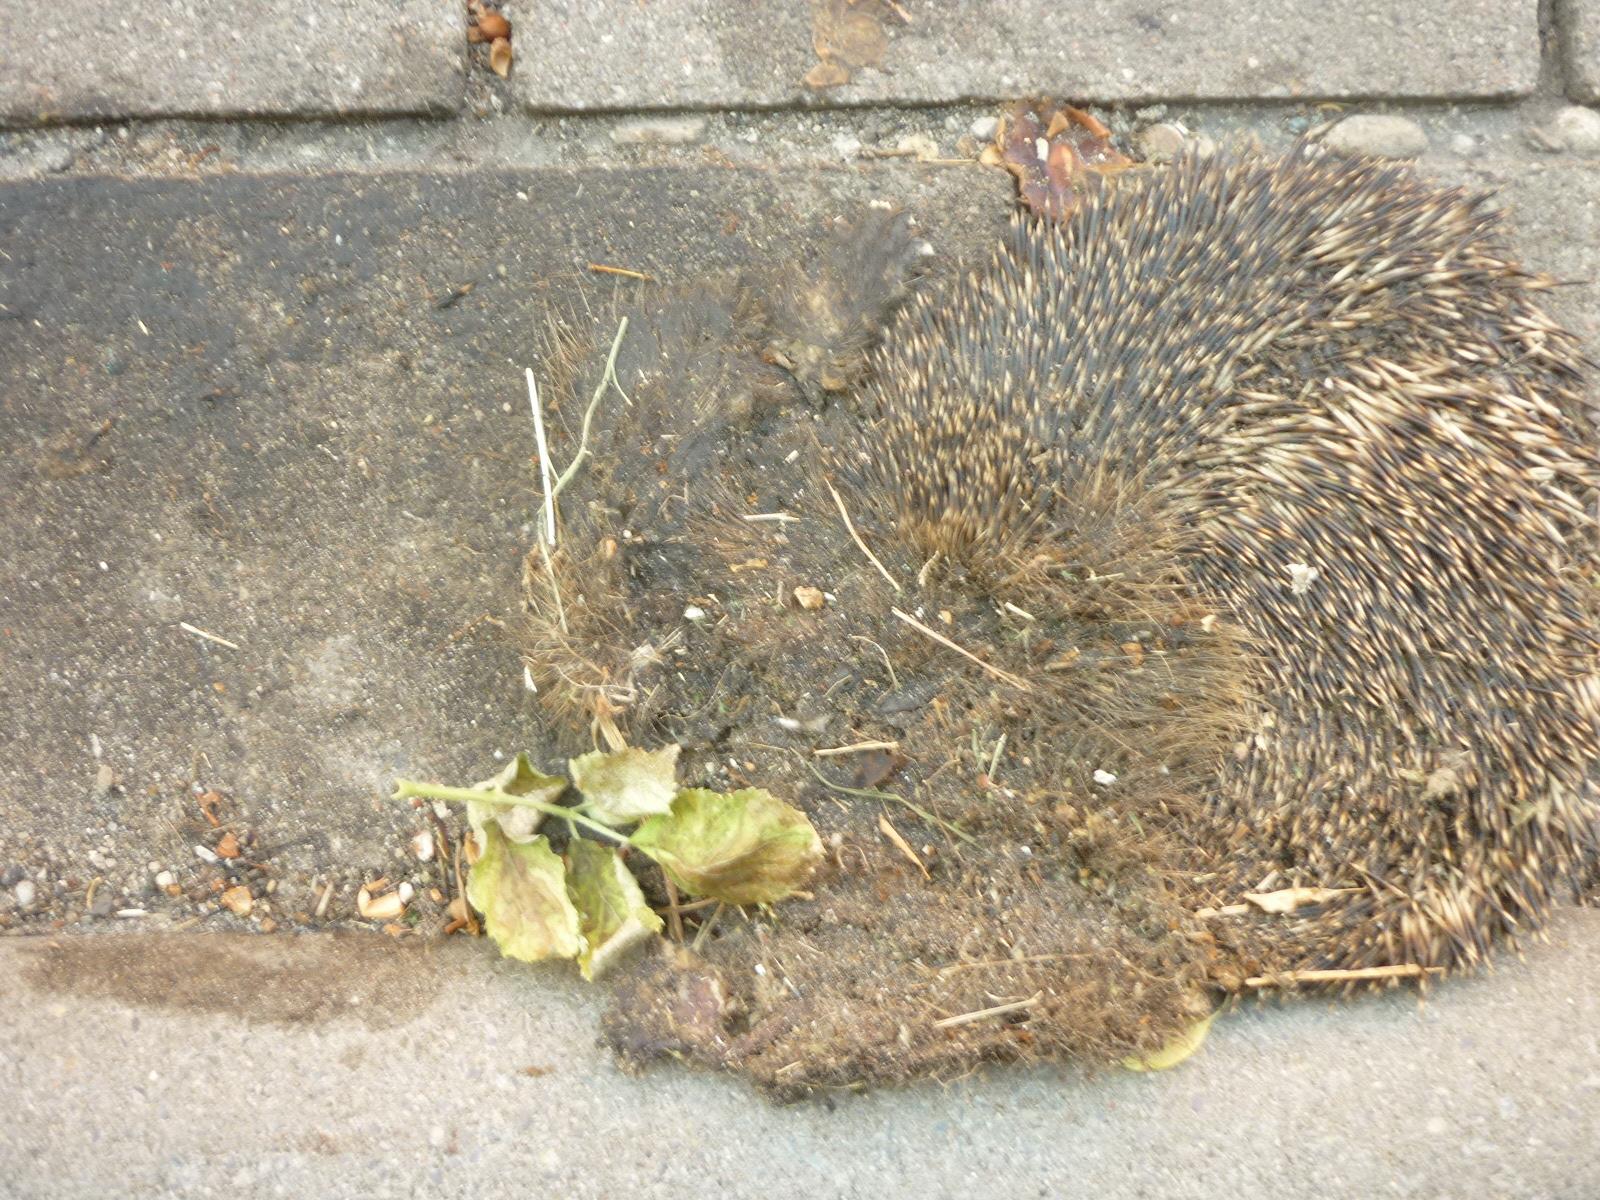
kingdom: Animalia
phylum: Chordata
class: Mammalia
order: Erinaceomorpha
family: Erinaceidae
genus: Erinaceus
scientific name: Erinaceus
